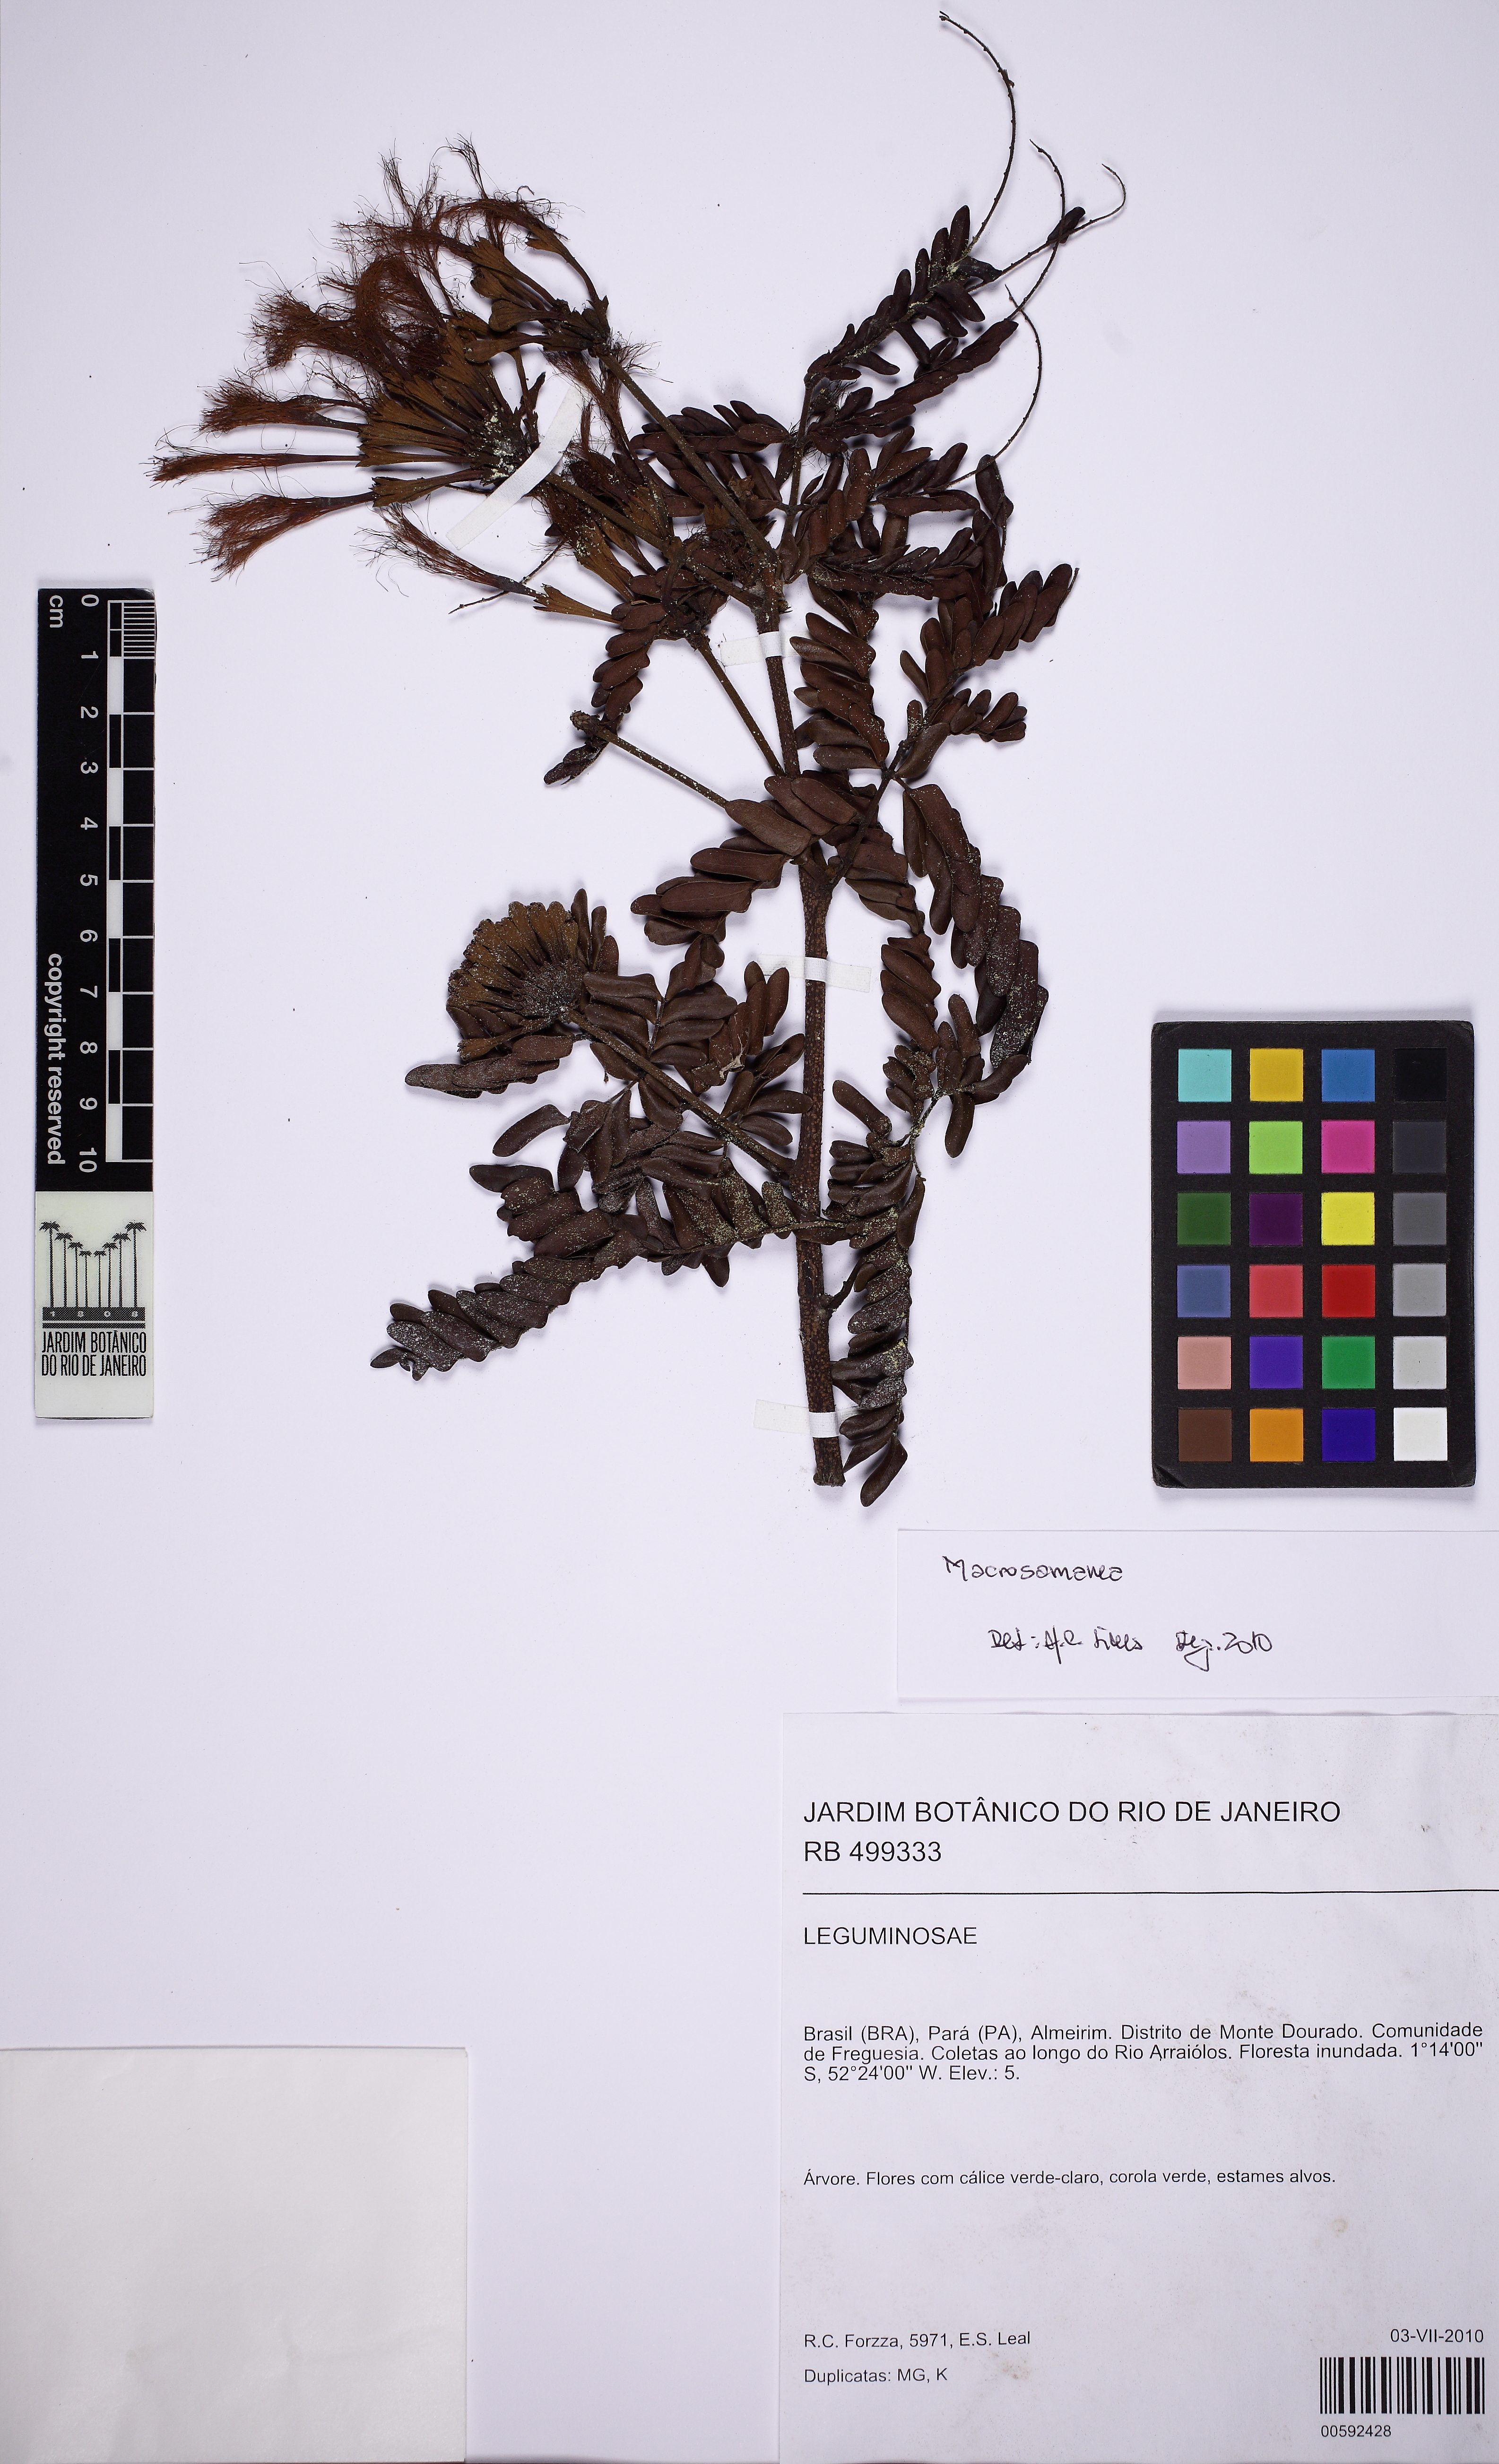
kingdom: Plantae
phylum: Tracheophyta
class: Magnoliopsida
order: Fabales
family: Fabaceae
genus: Macrosamanea
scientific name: Macrosamanea pubiramea
